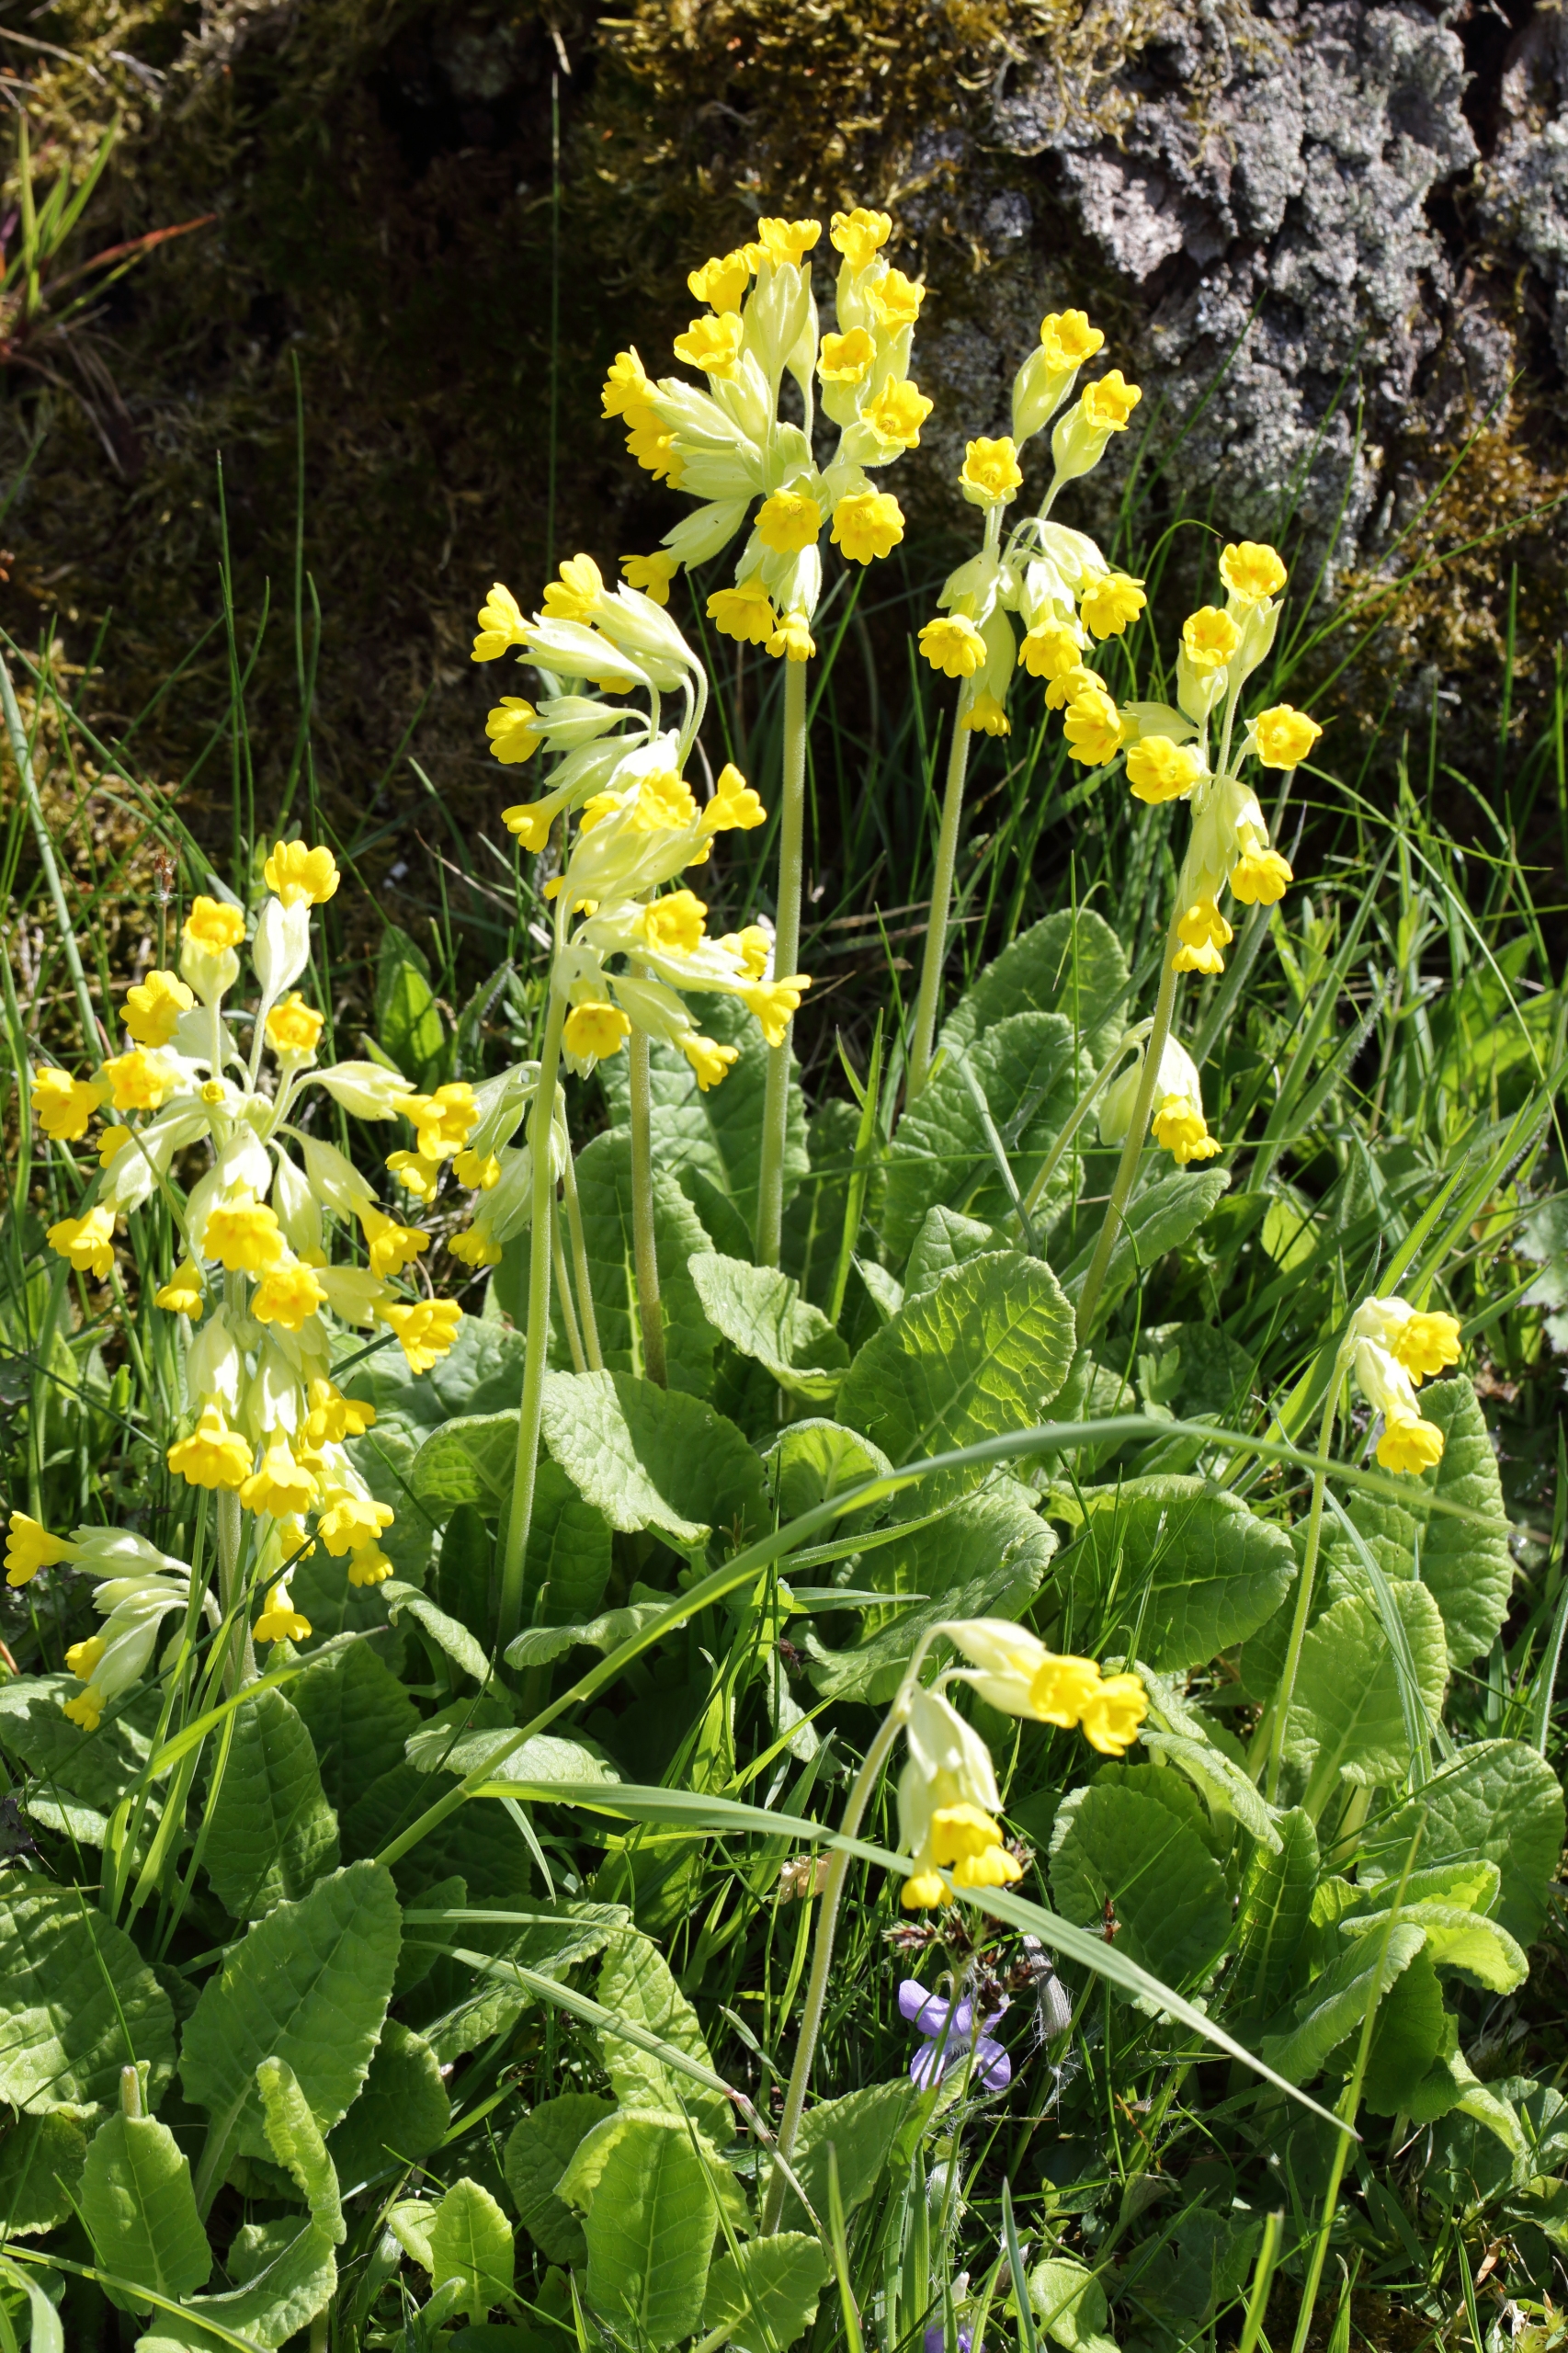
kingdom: Plantae
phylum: Tracheophyta
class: Magnoliopsida
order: Ericales
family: Primulaceae
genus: Primula
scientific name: Primula veris
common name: Hulkravet kodriver
